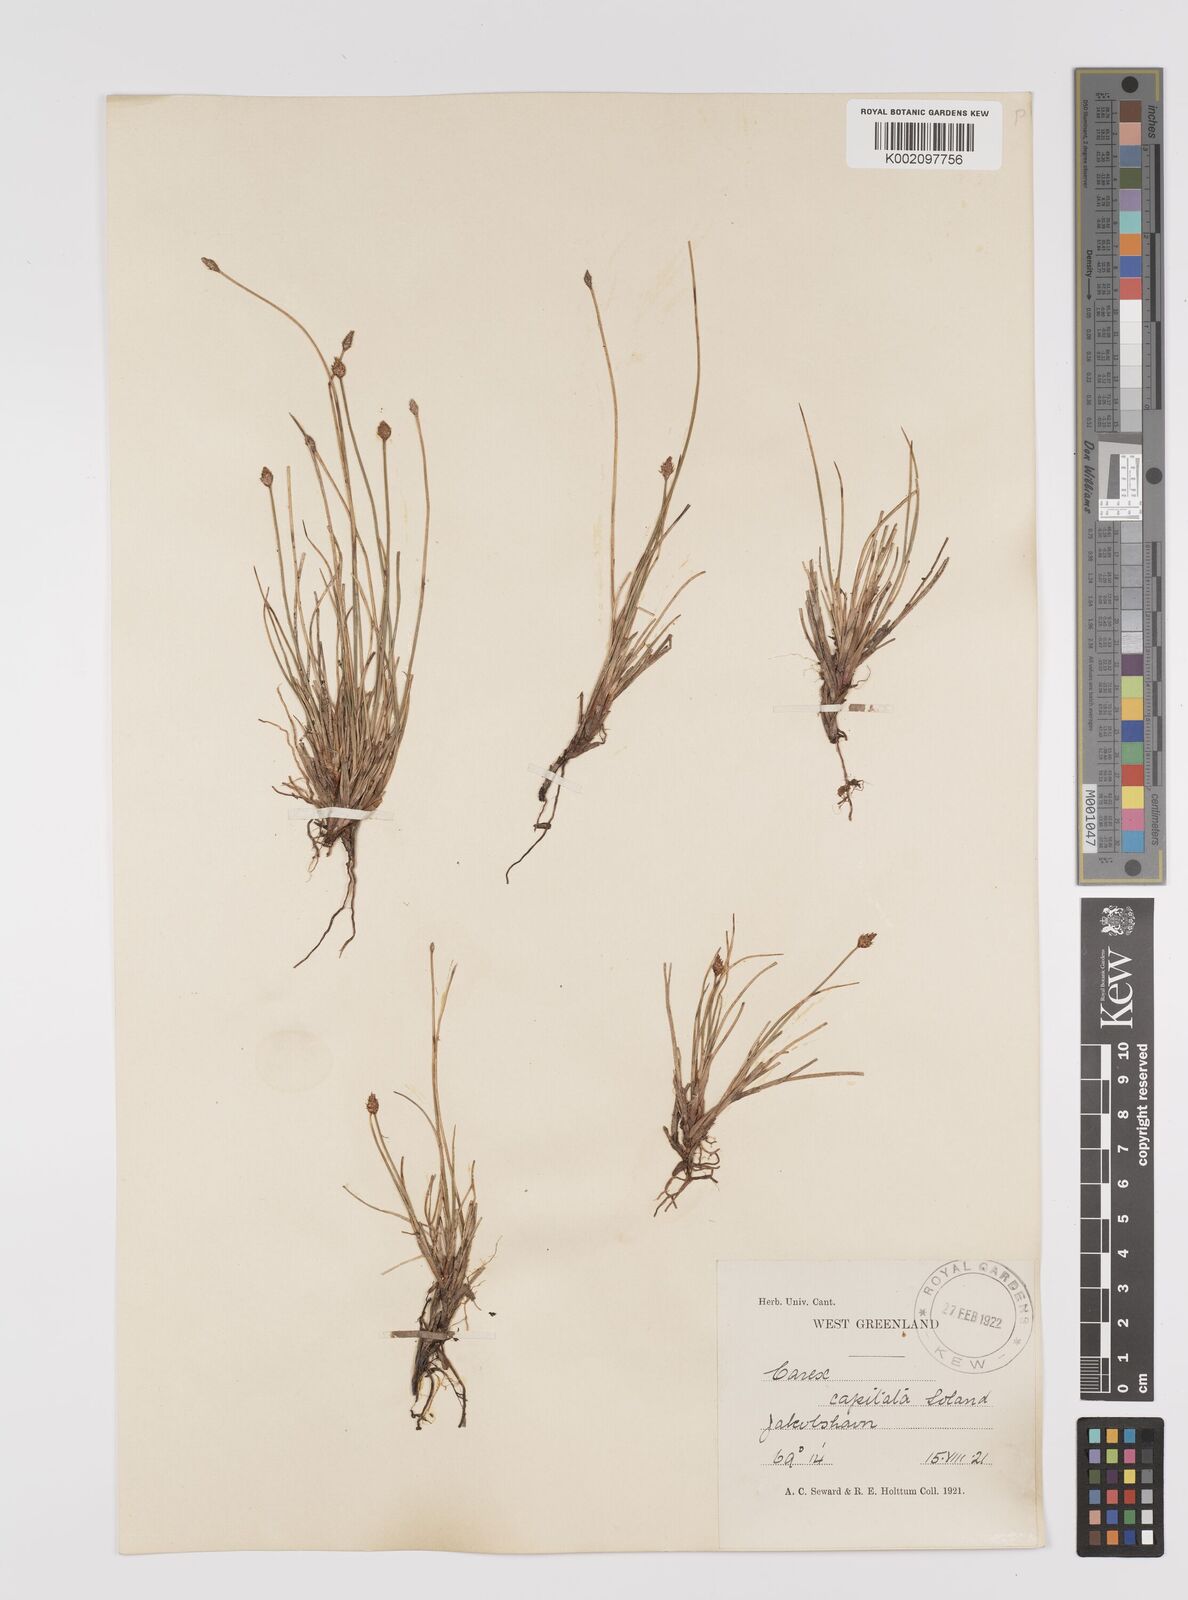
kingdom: Plantae
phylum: Tracheophyta
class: Liliopsida
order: Poales
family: Cyperaceae
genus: Carex
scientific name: Carex capitata
